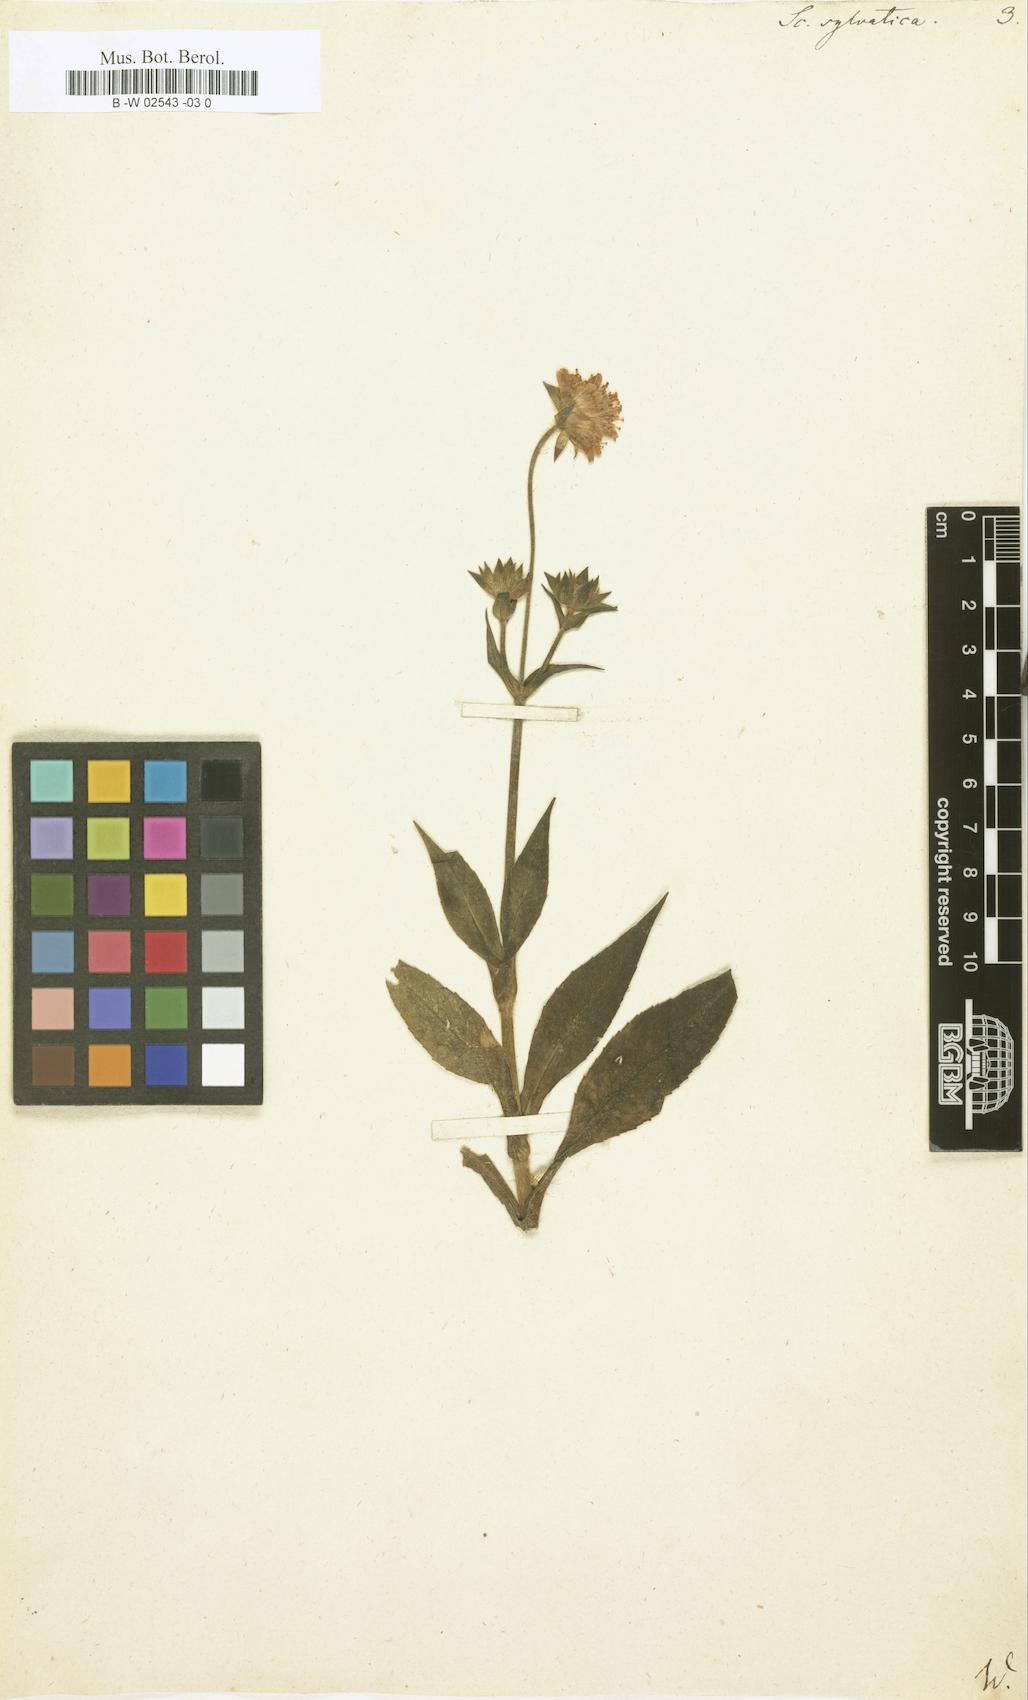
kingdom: Plantae
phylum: Tracheophyta
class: Magnoliopsida
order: Dipsacales
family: Caprifoliaceae
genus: Knautia
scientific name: Knautia drymeia
